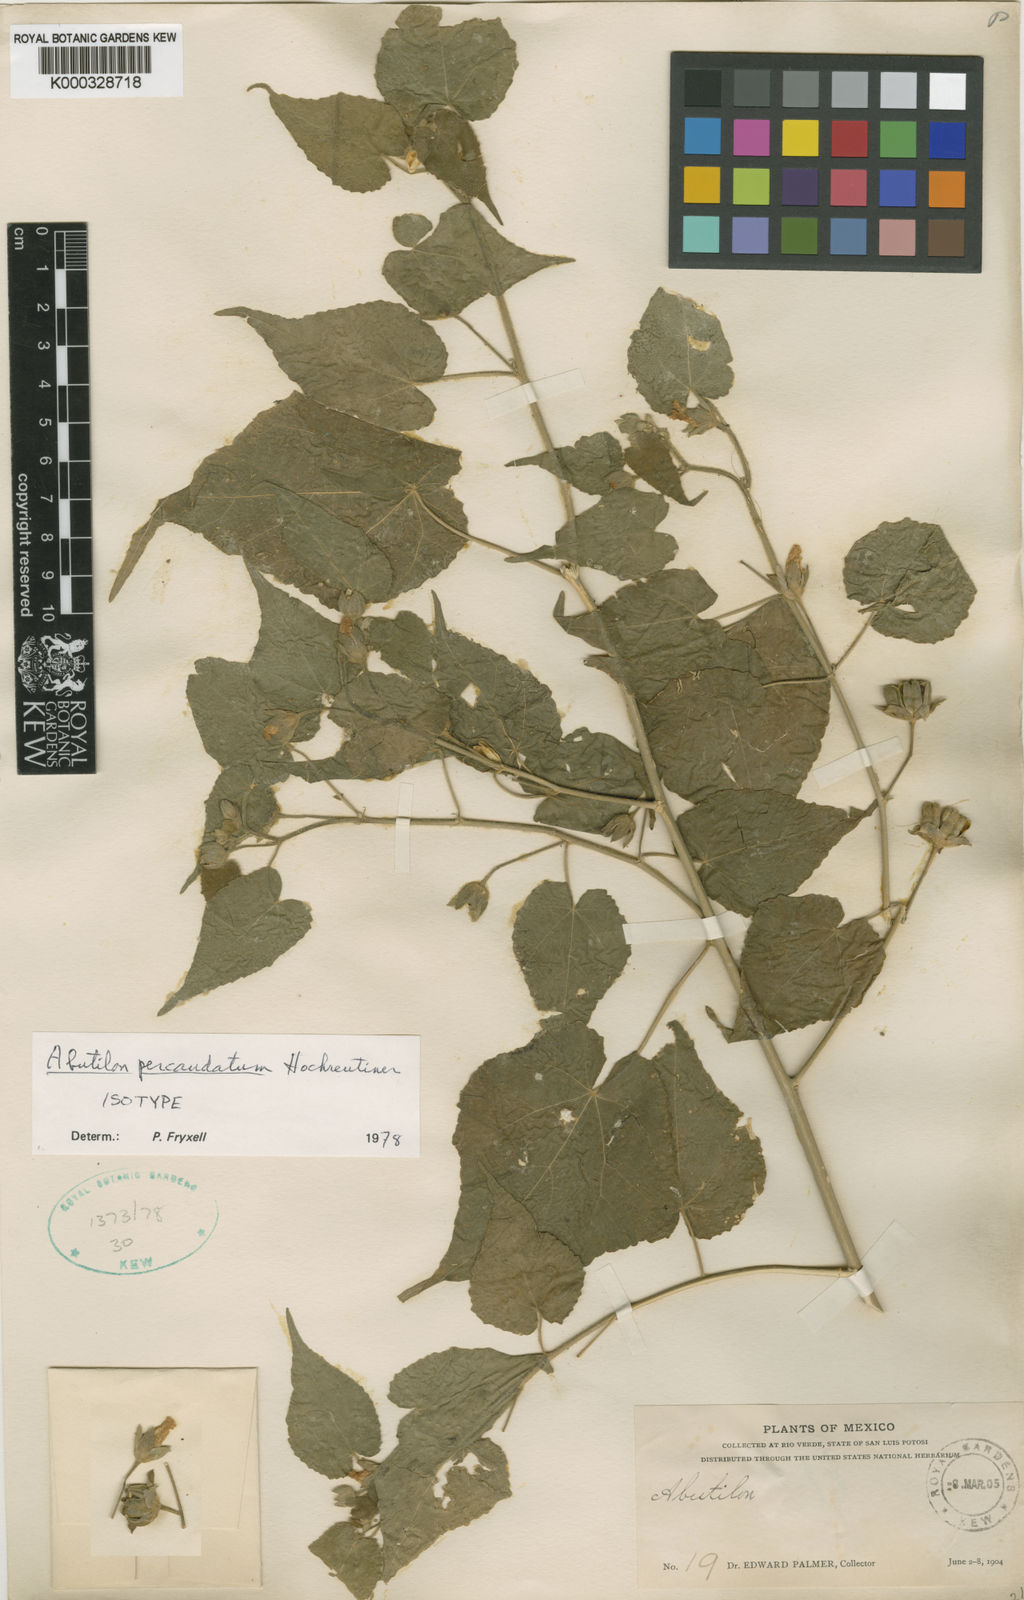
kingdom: Plantae
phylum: Tracheophyta
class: Magnoliopsida
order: Malvales
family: Malvaceae
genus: Abutilon
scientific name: Abutilon percaudatum
